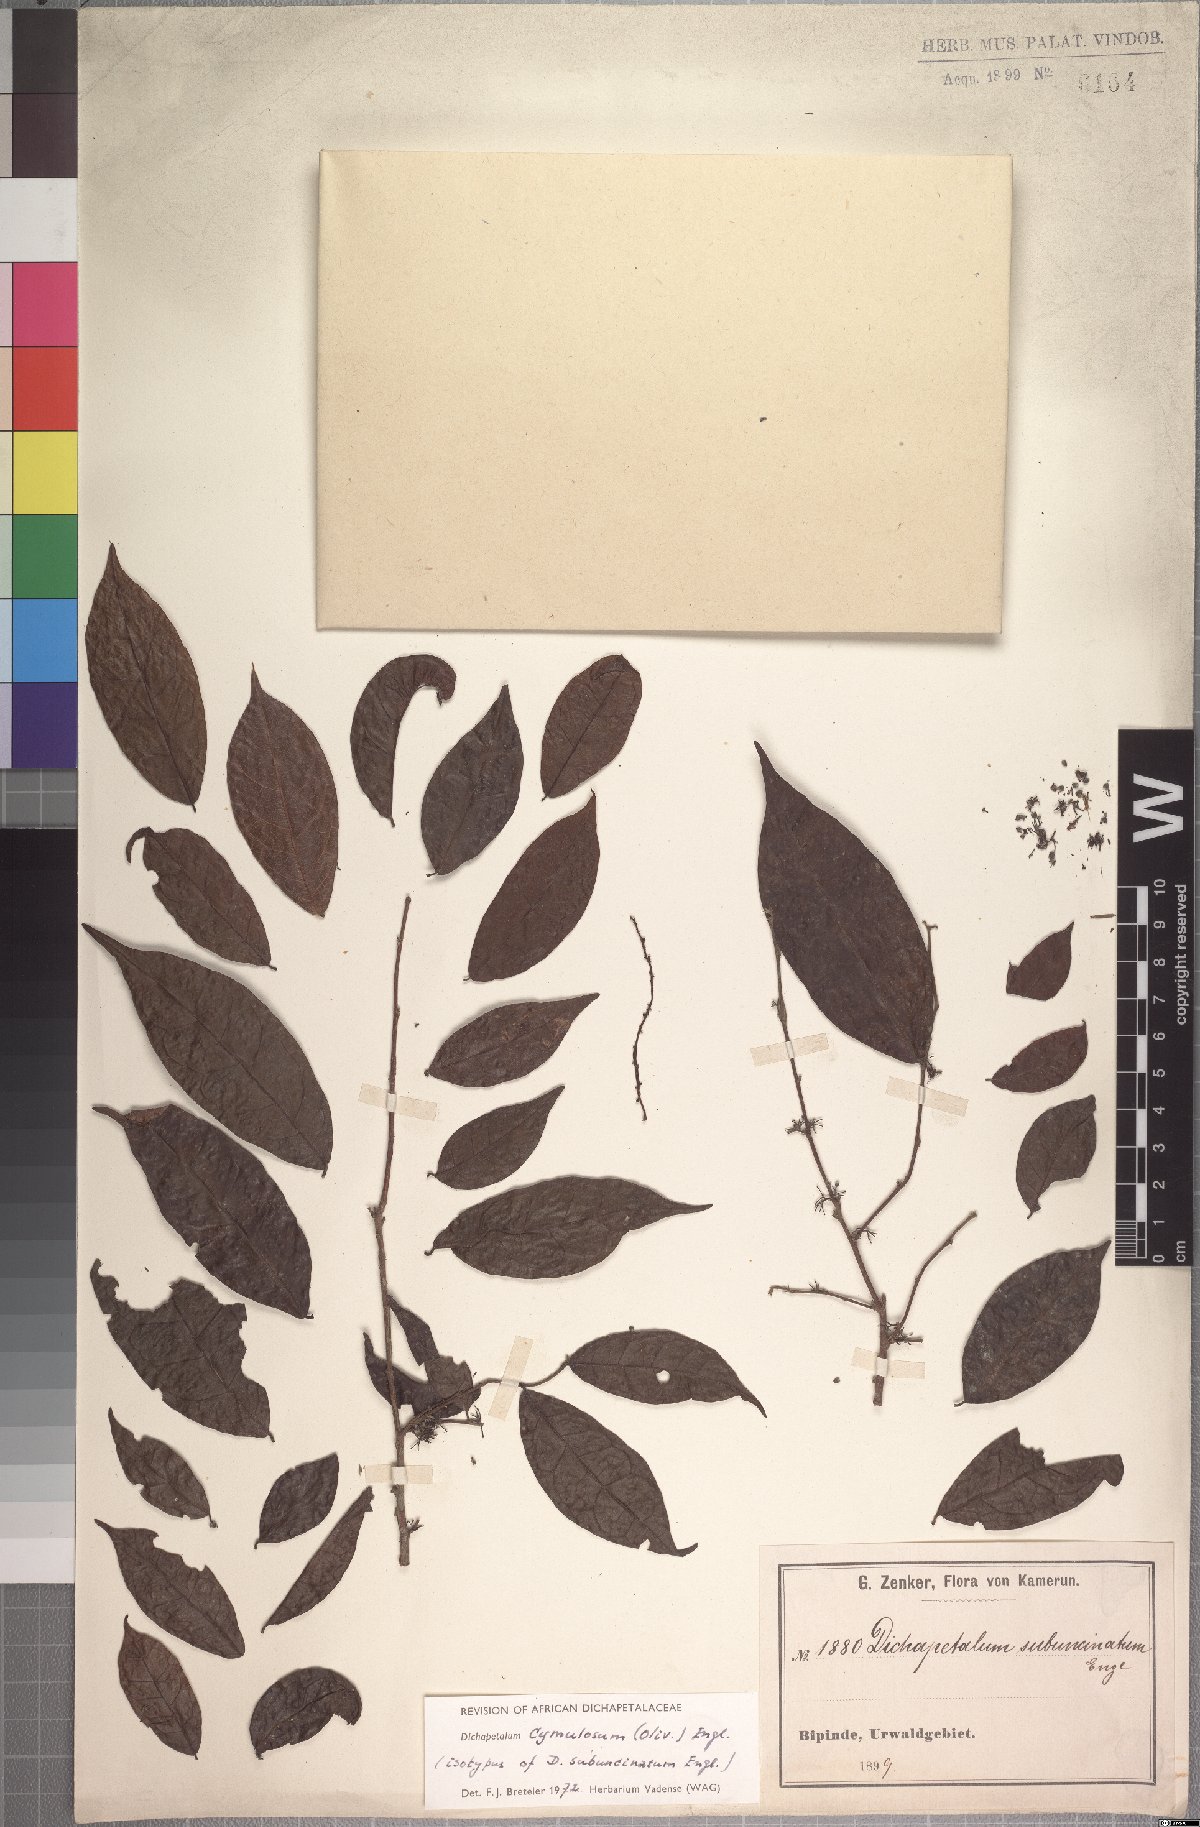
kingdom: Plantae
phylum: Tracheophyta
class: Magnoliopsida
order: Malpighiales
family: Dichapetalaceae
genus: Dichapetalum
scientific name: Dichapetalum cymulosum
